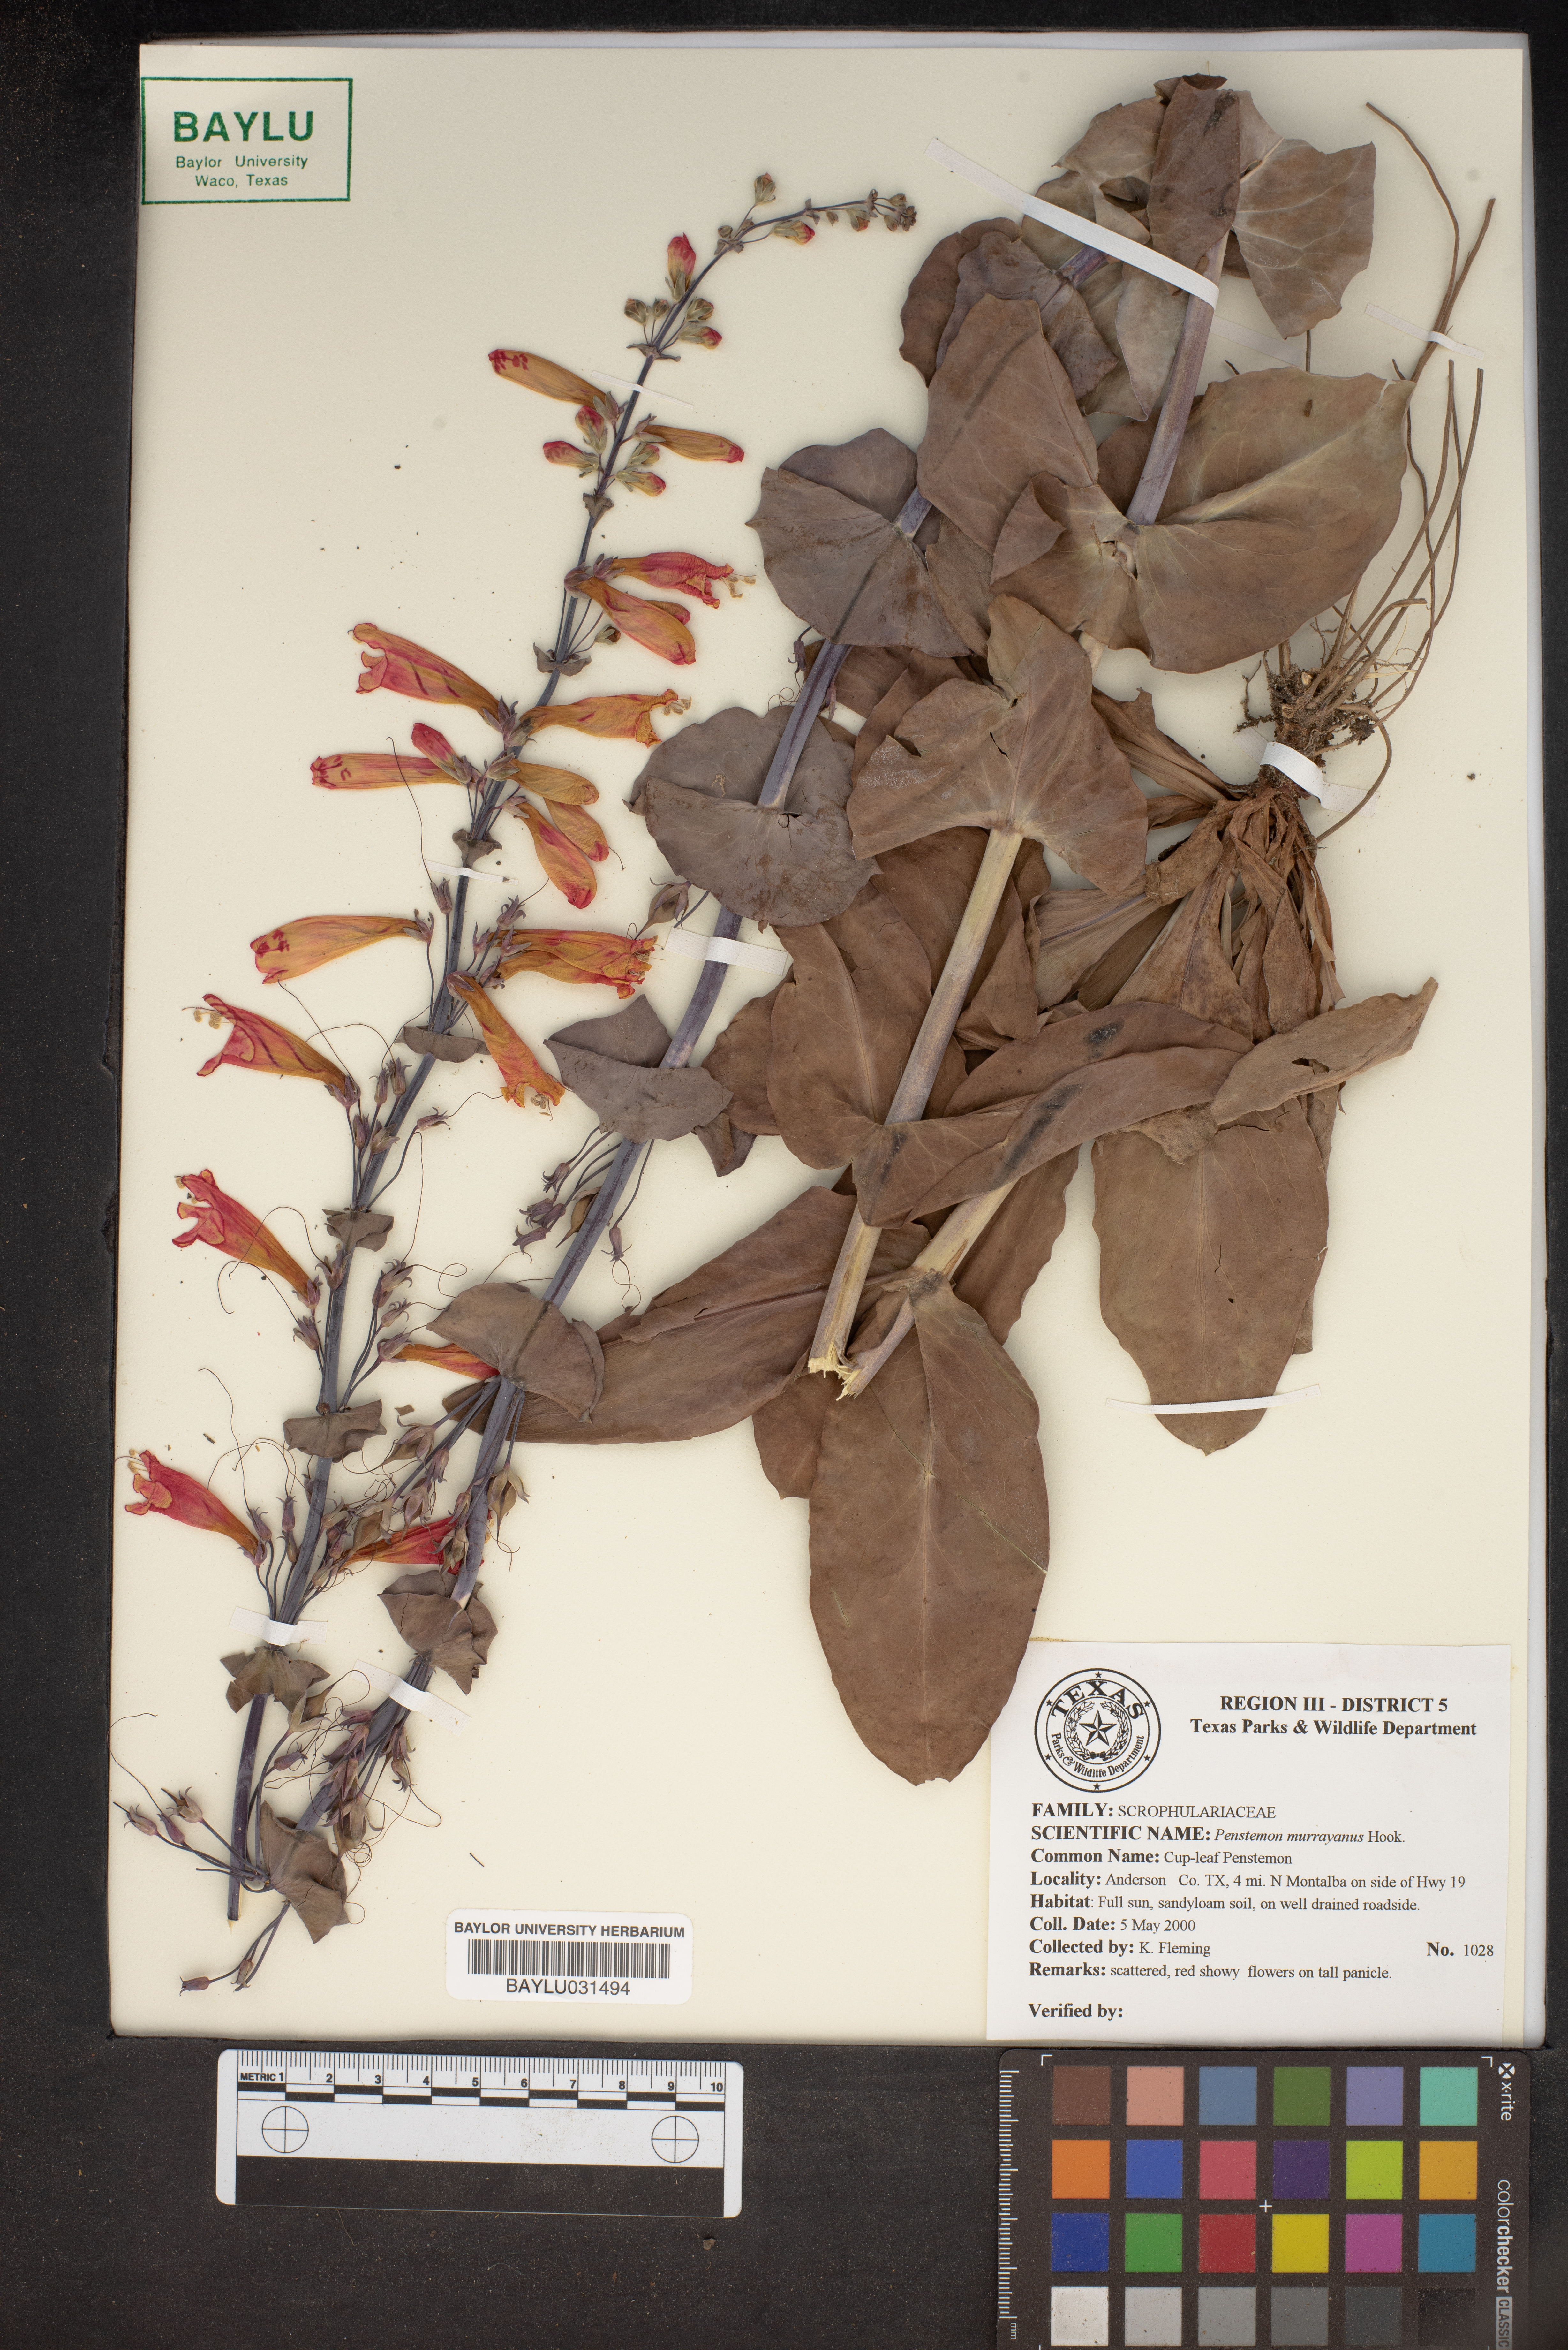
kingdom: Plantae
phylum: Tracheophyta
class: Magnoliopsida
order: Lamiales
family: Plantaginaceae
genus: Penstemon
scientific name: Penstemon murrayanus
